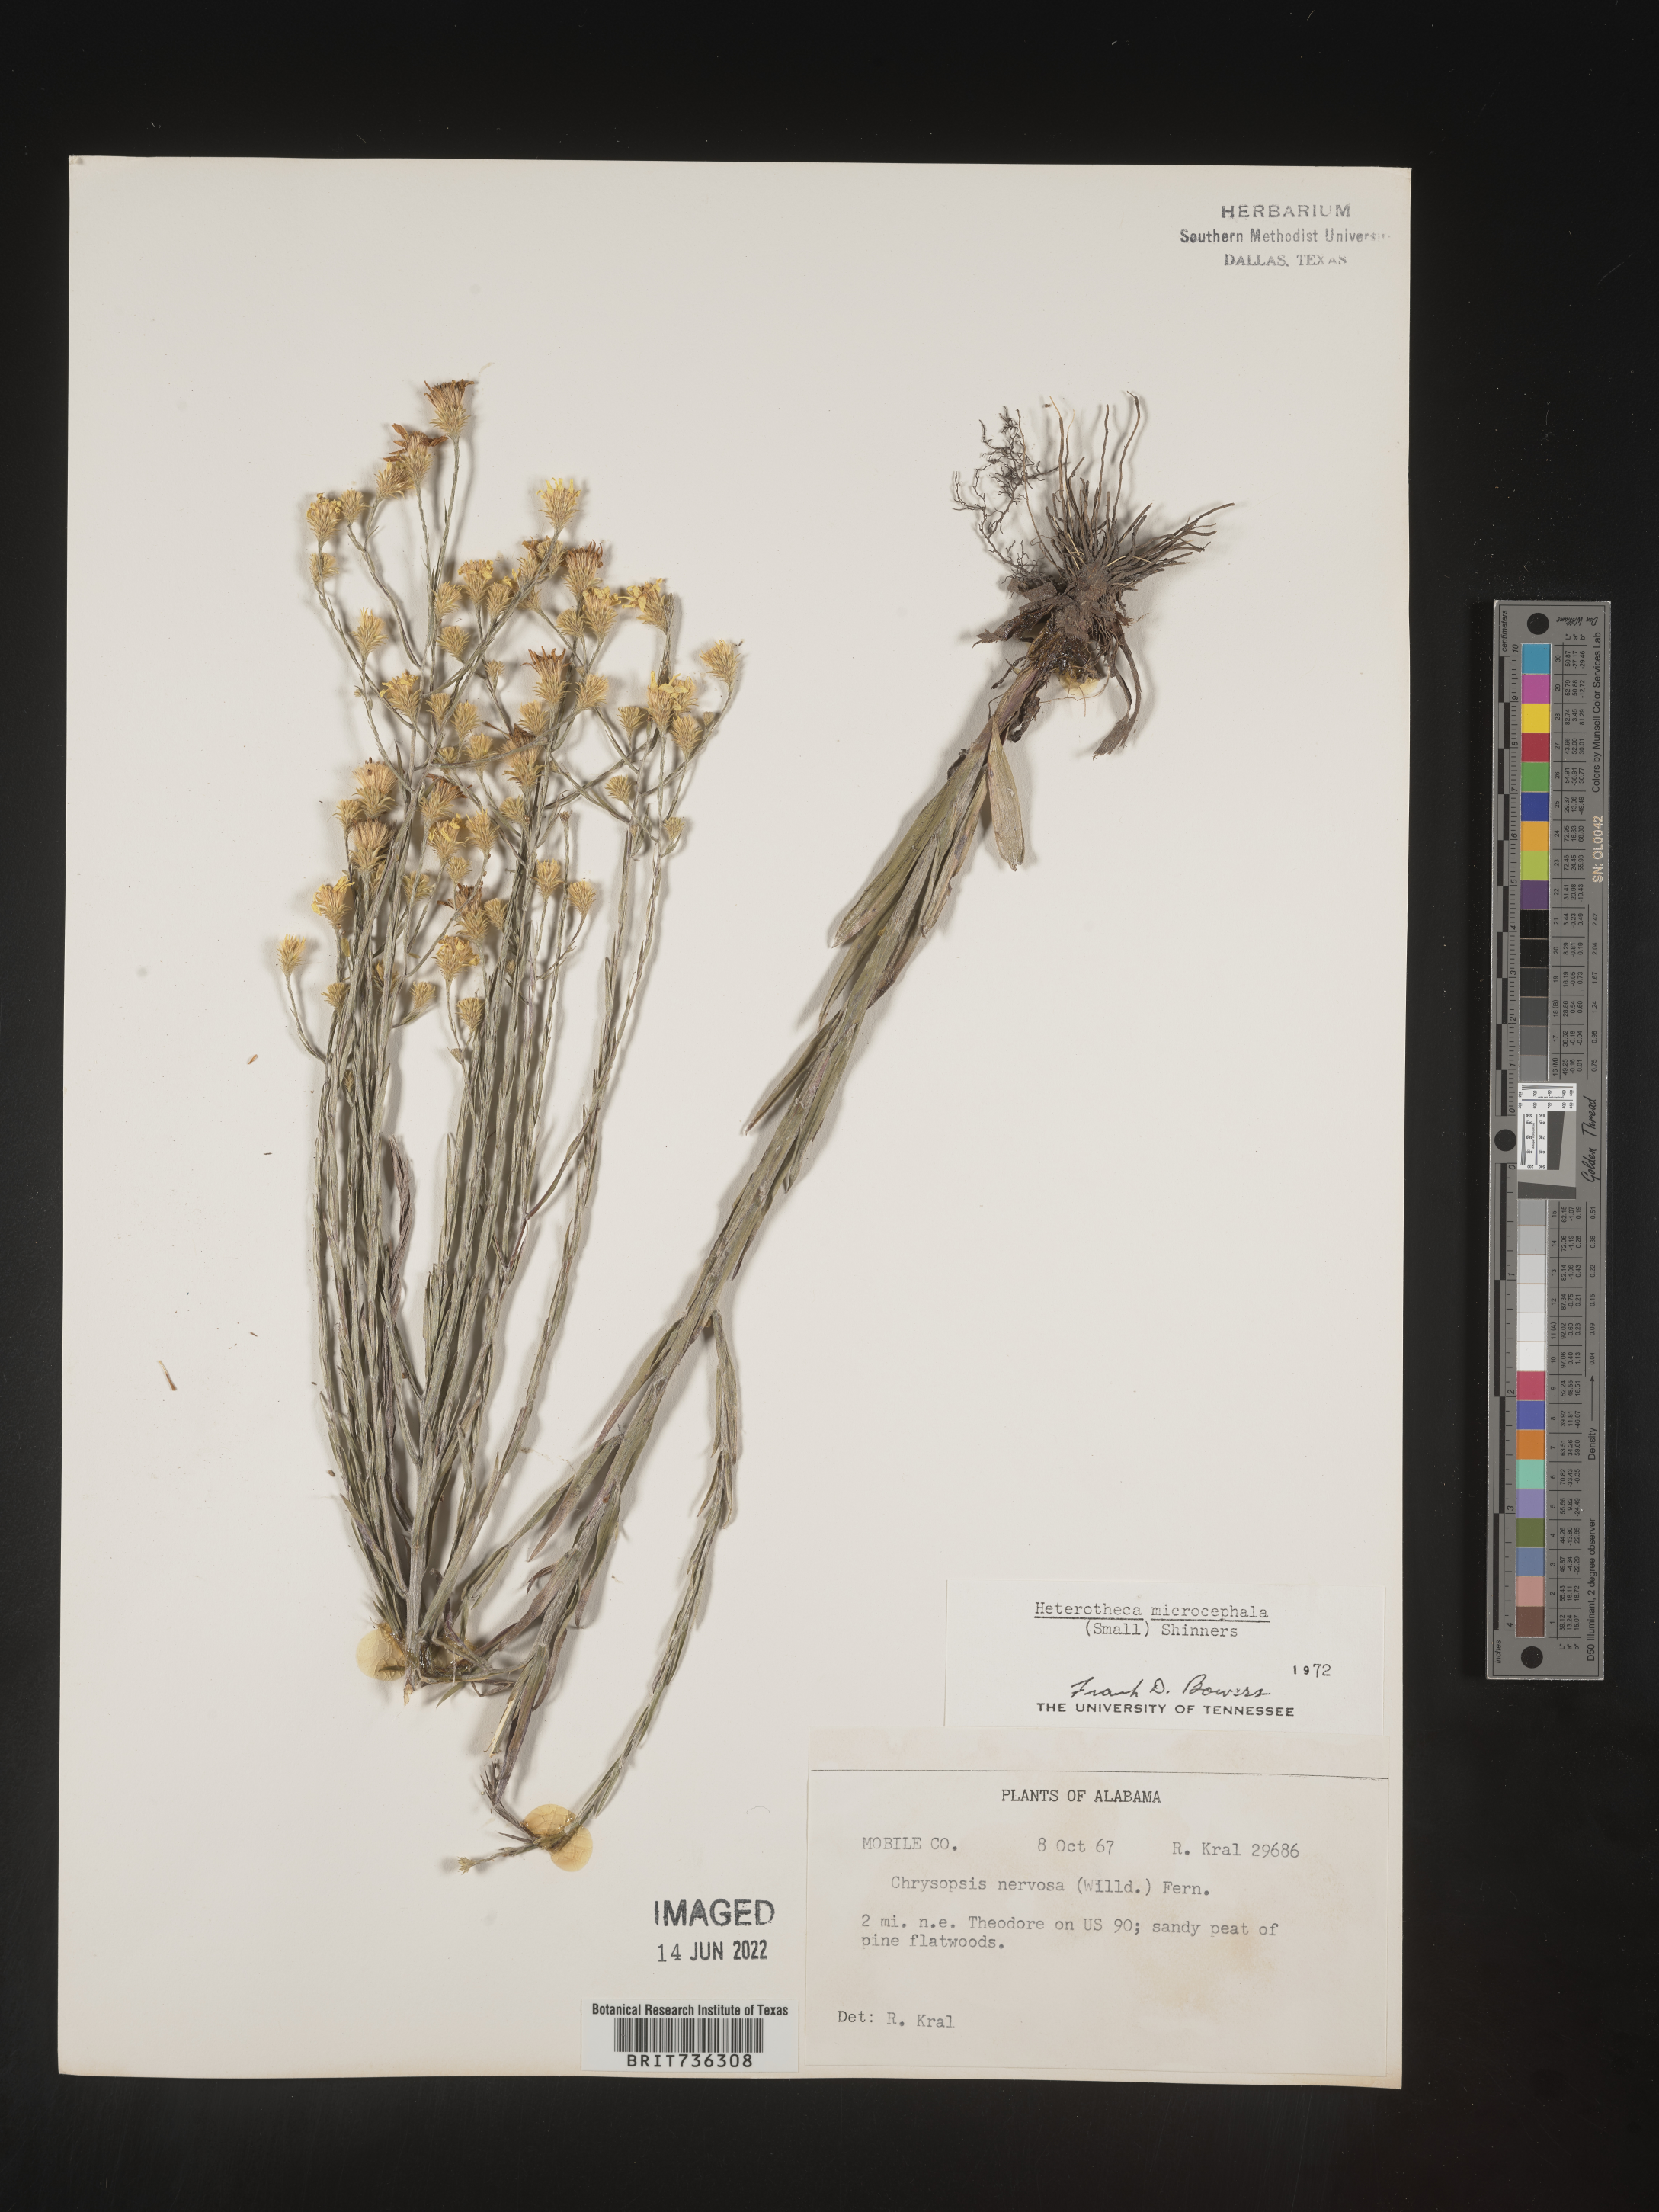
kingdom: Plantae
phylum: Tracheophyta
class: Magnoliopsida
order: Asterales
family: Asteraceae
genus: Pityopsis
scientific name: Pityopsis microcephala
